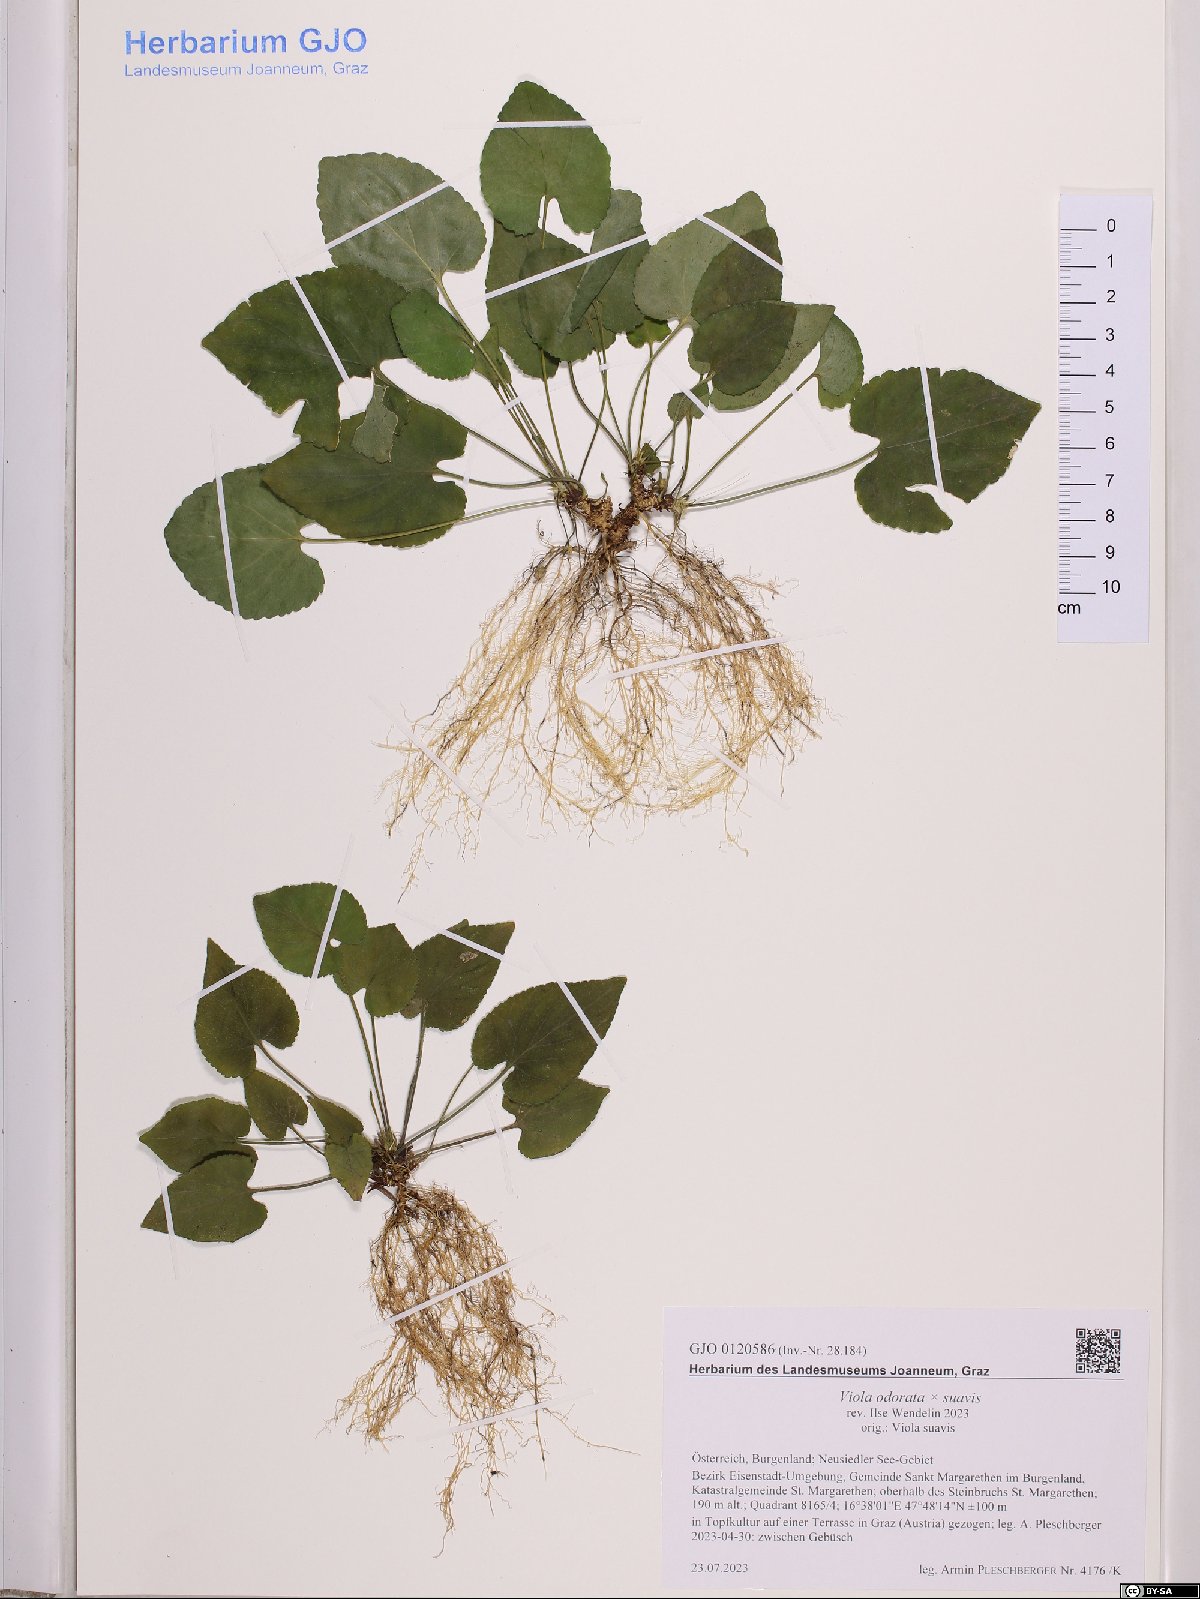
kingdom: Plantae
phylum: Tracheophyta
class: Magnoliopsida
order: Malpighiales
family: Violaceae
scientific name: Violaceae
